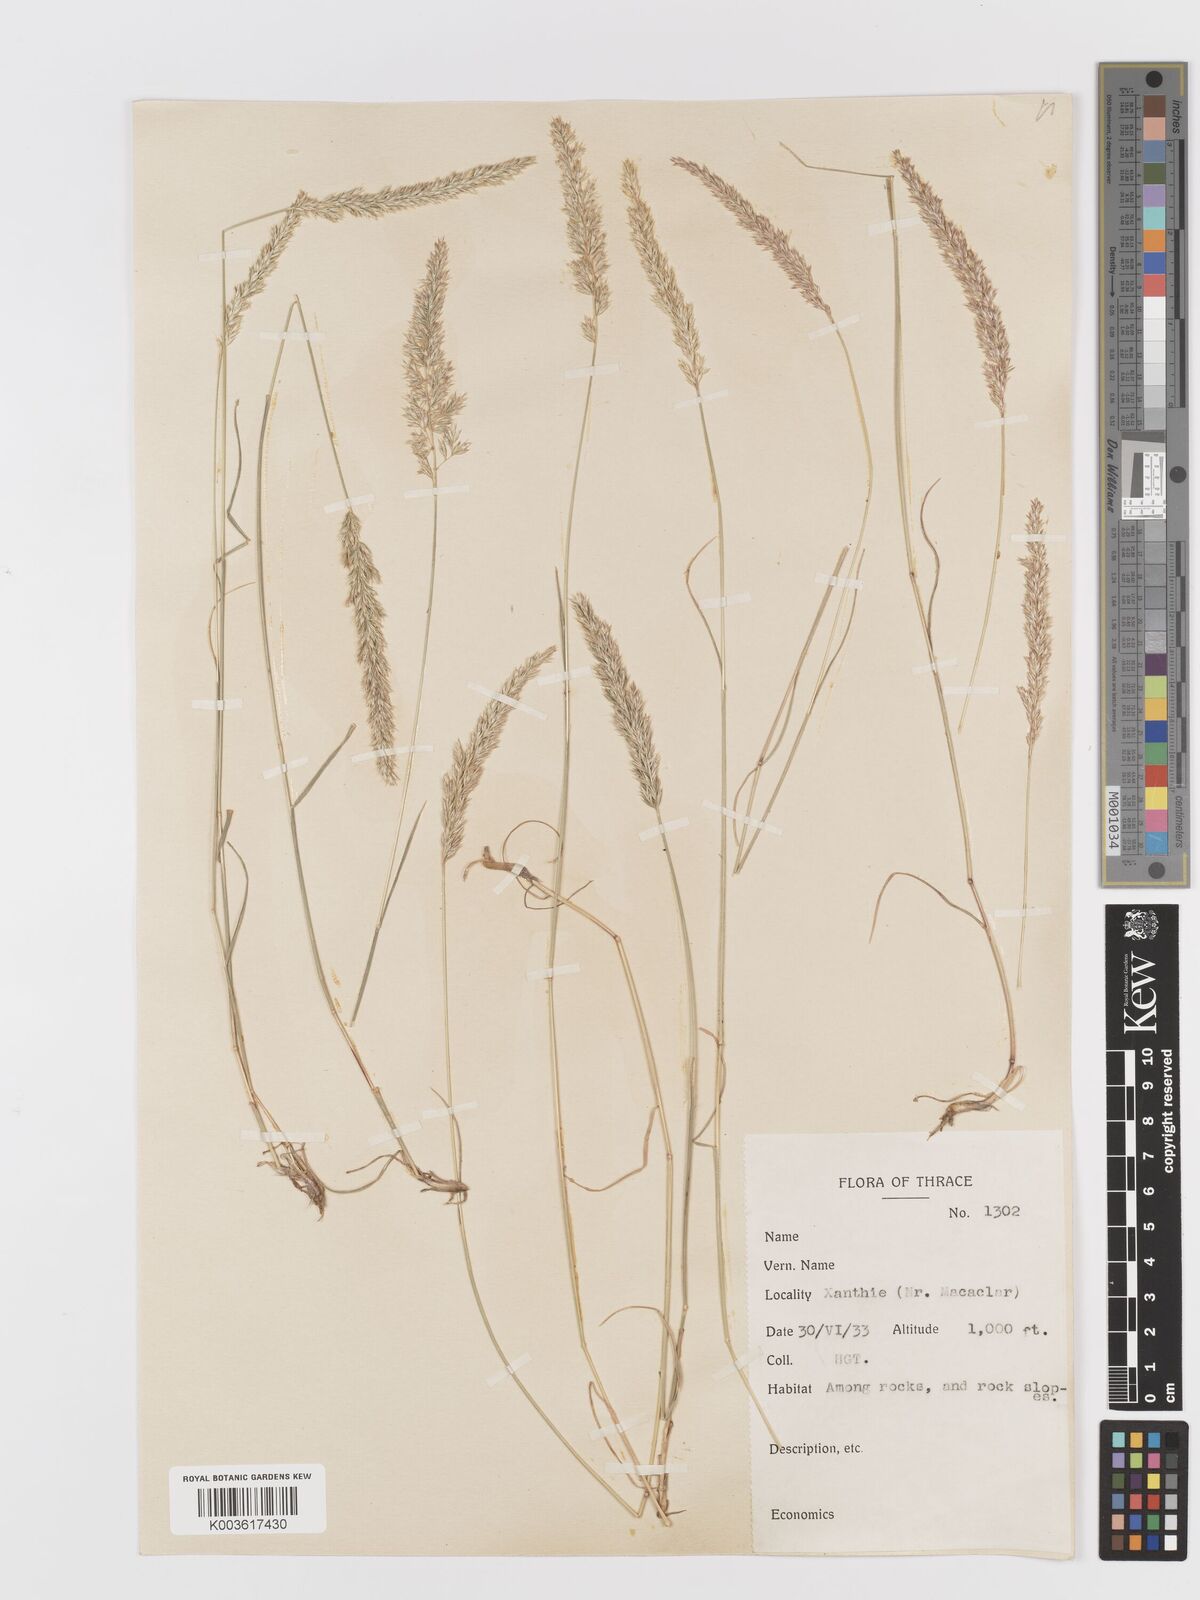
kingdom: Plantae
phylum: Tracheophyta
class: Liliopsida
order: Poales
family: Poaceae
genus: Koeleria
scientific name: Koeleria nitidula
